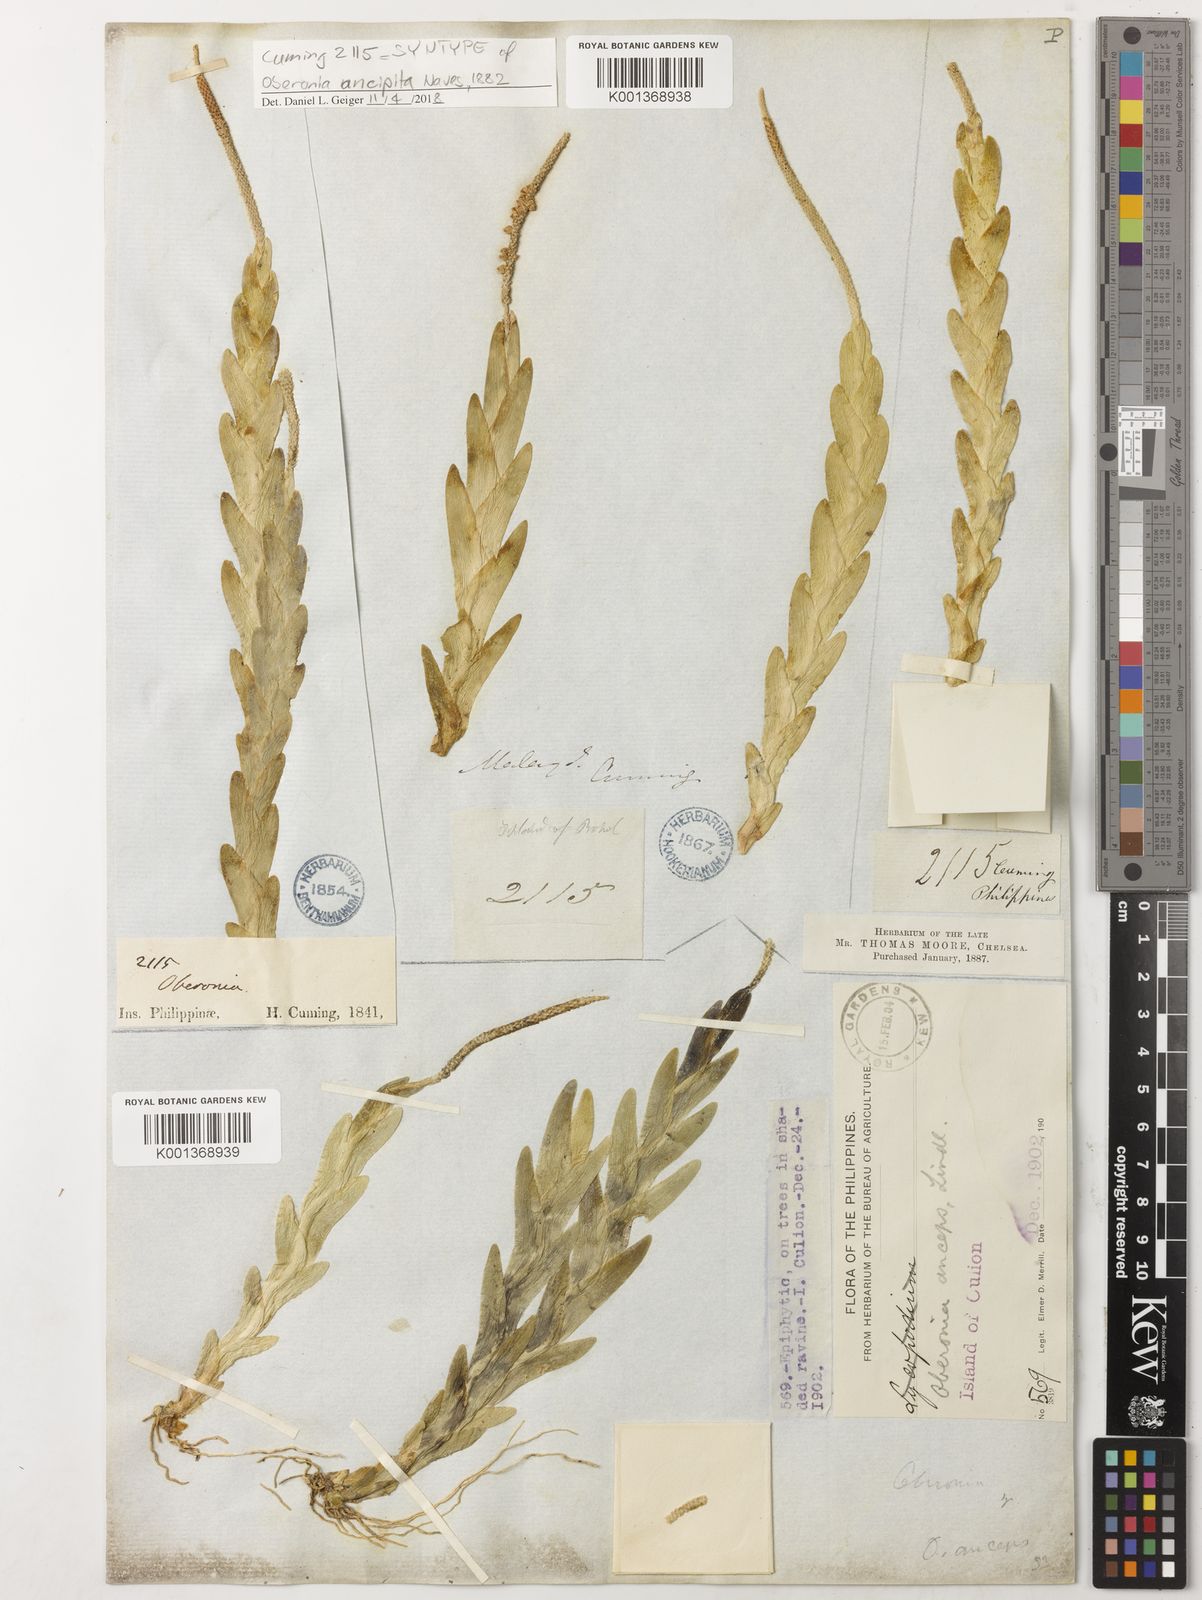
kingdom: Plantae
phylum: Tracheophyta
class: Liliopsida
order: Asparagales
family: Orchidaceae
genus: Oberonia
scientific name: Oberonia lycopodioides
